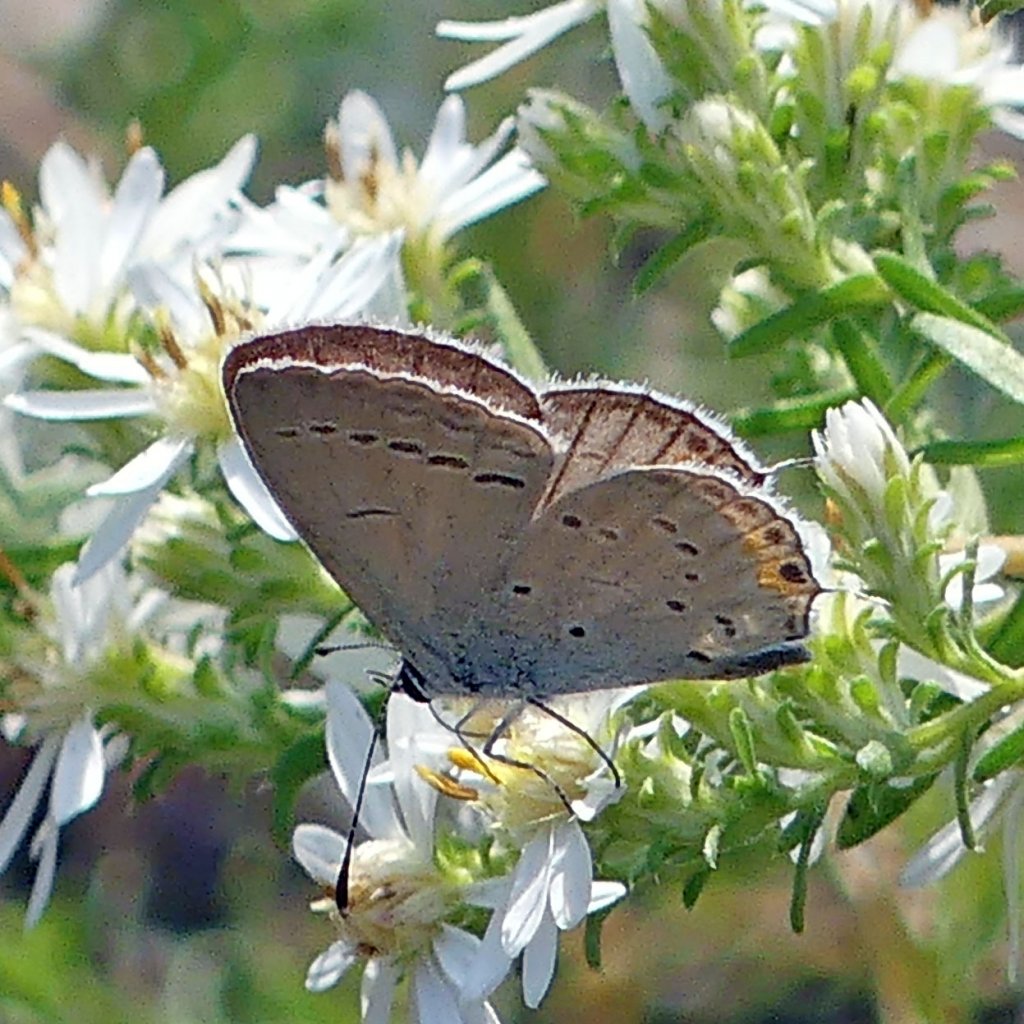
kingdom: Animalia
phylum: Arthropoda
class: Insecta
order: Lepidoptera
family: Lycaenidae
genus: Elkalyce
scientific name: Elkalyce comyntas
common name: Eastern Tailed-Blue
